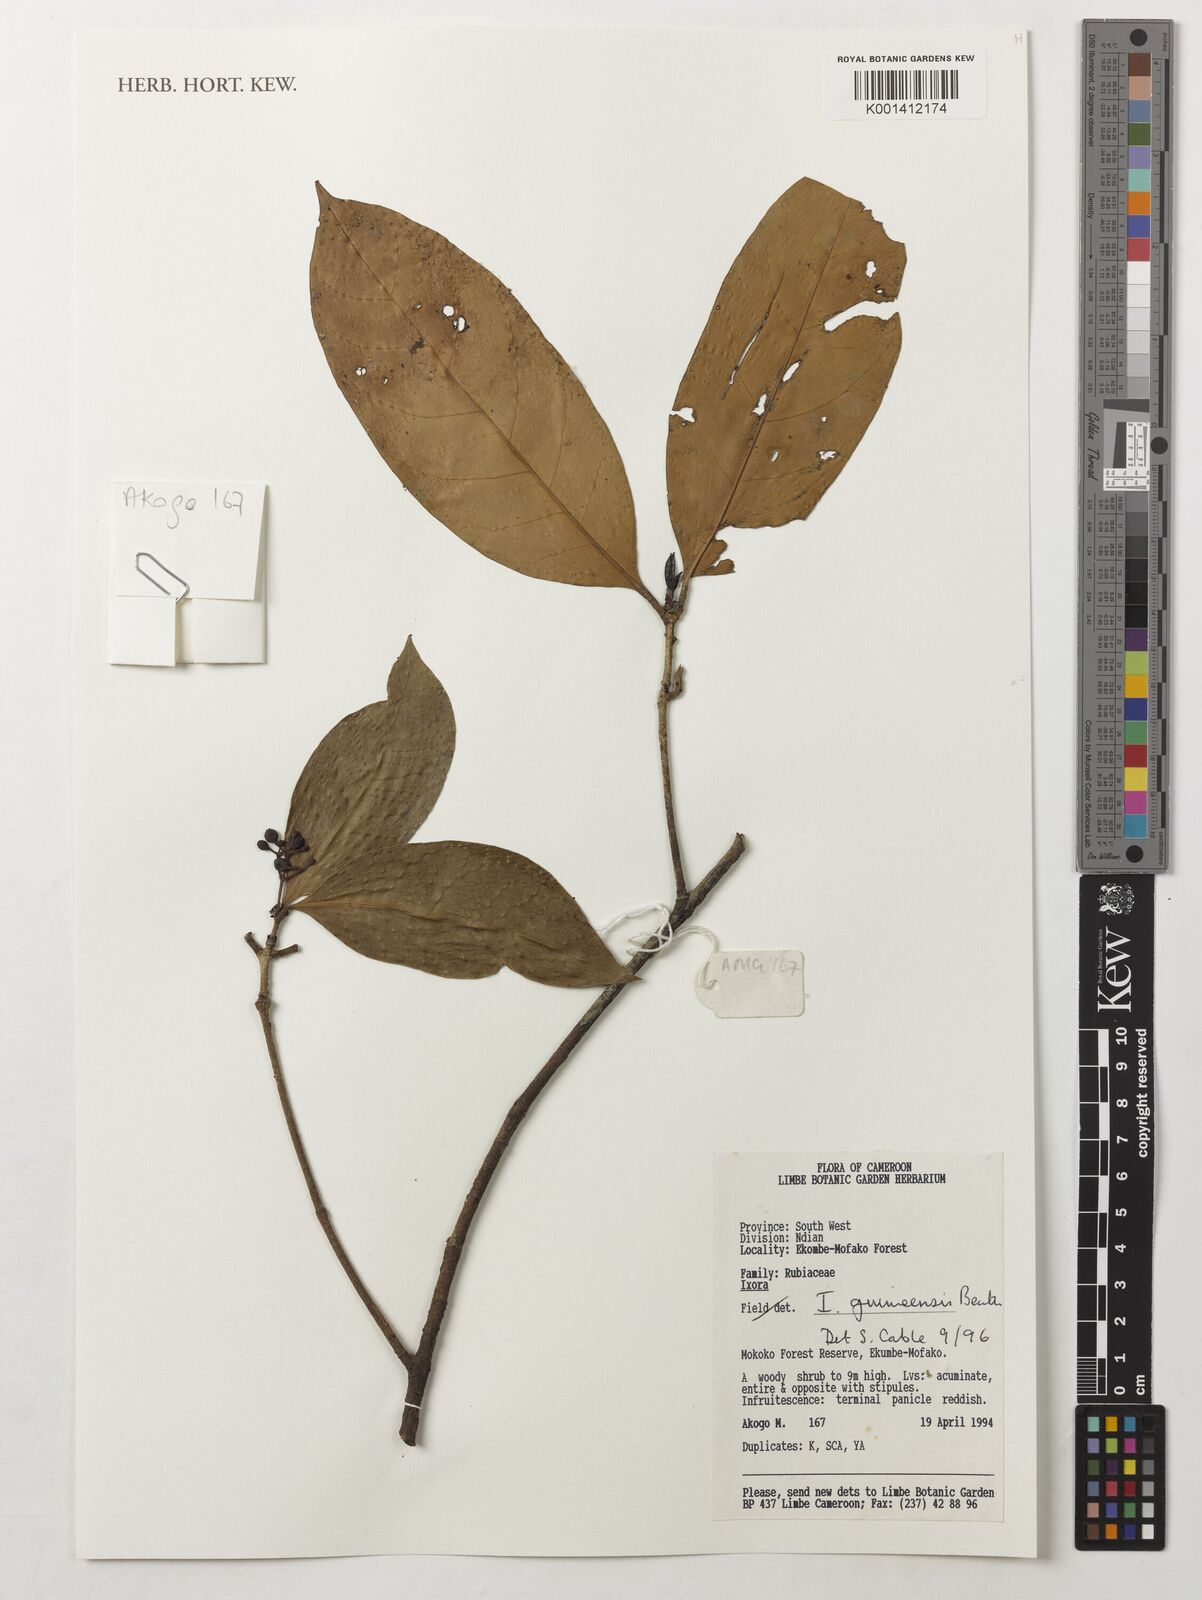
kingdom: Plantae
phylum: Tracheophyta
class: Magnoliopsida
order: Gentianales
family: Rubiaceae
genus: Ixora
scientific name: Ixora guineensis
